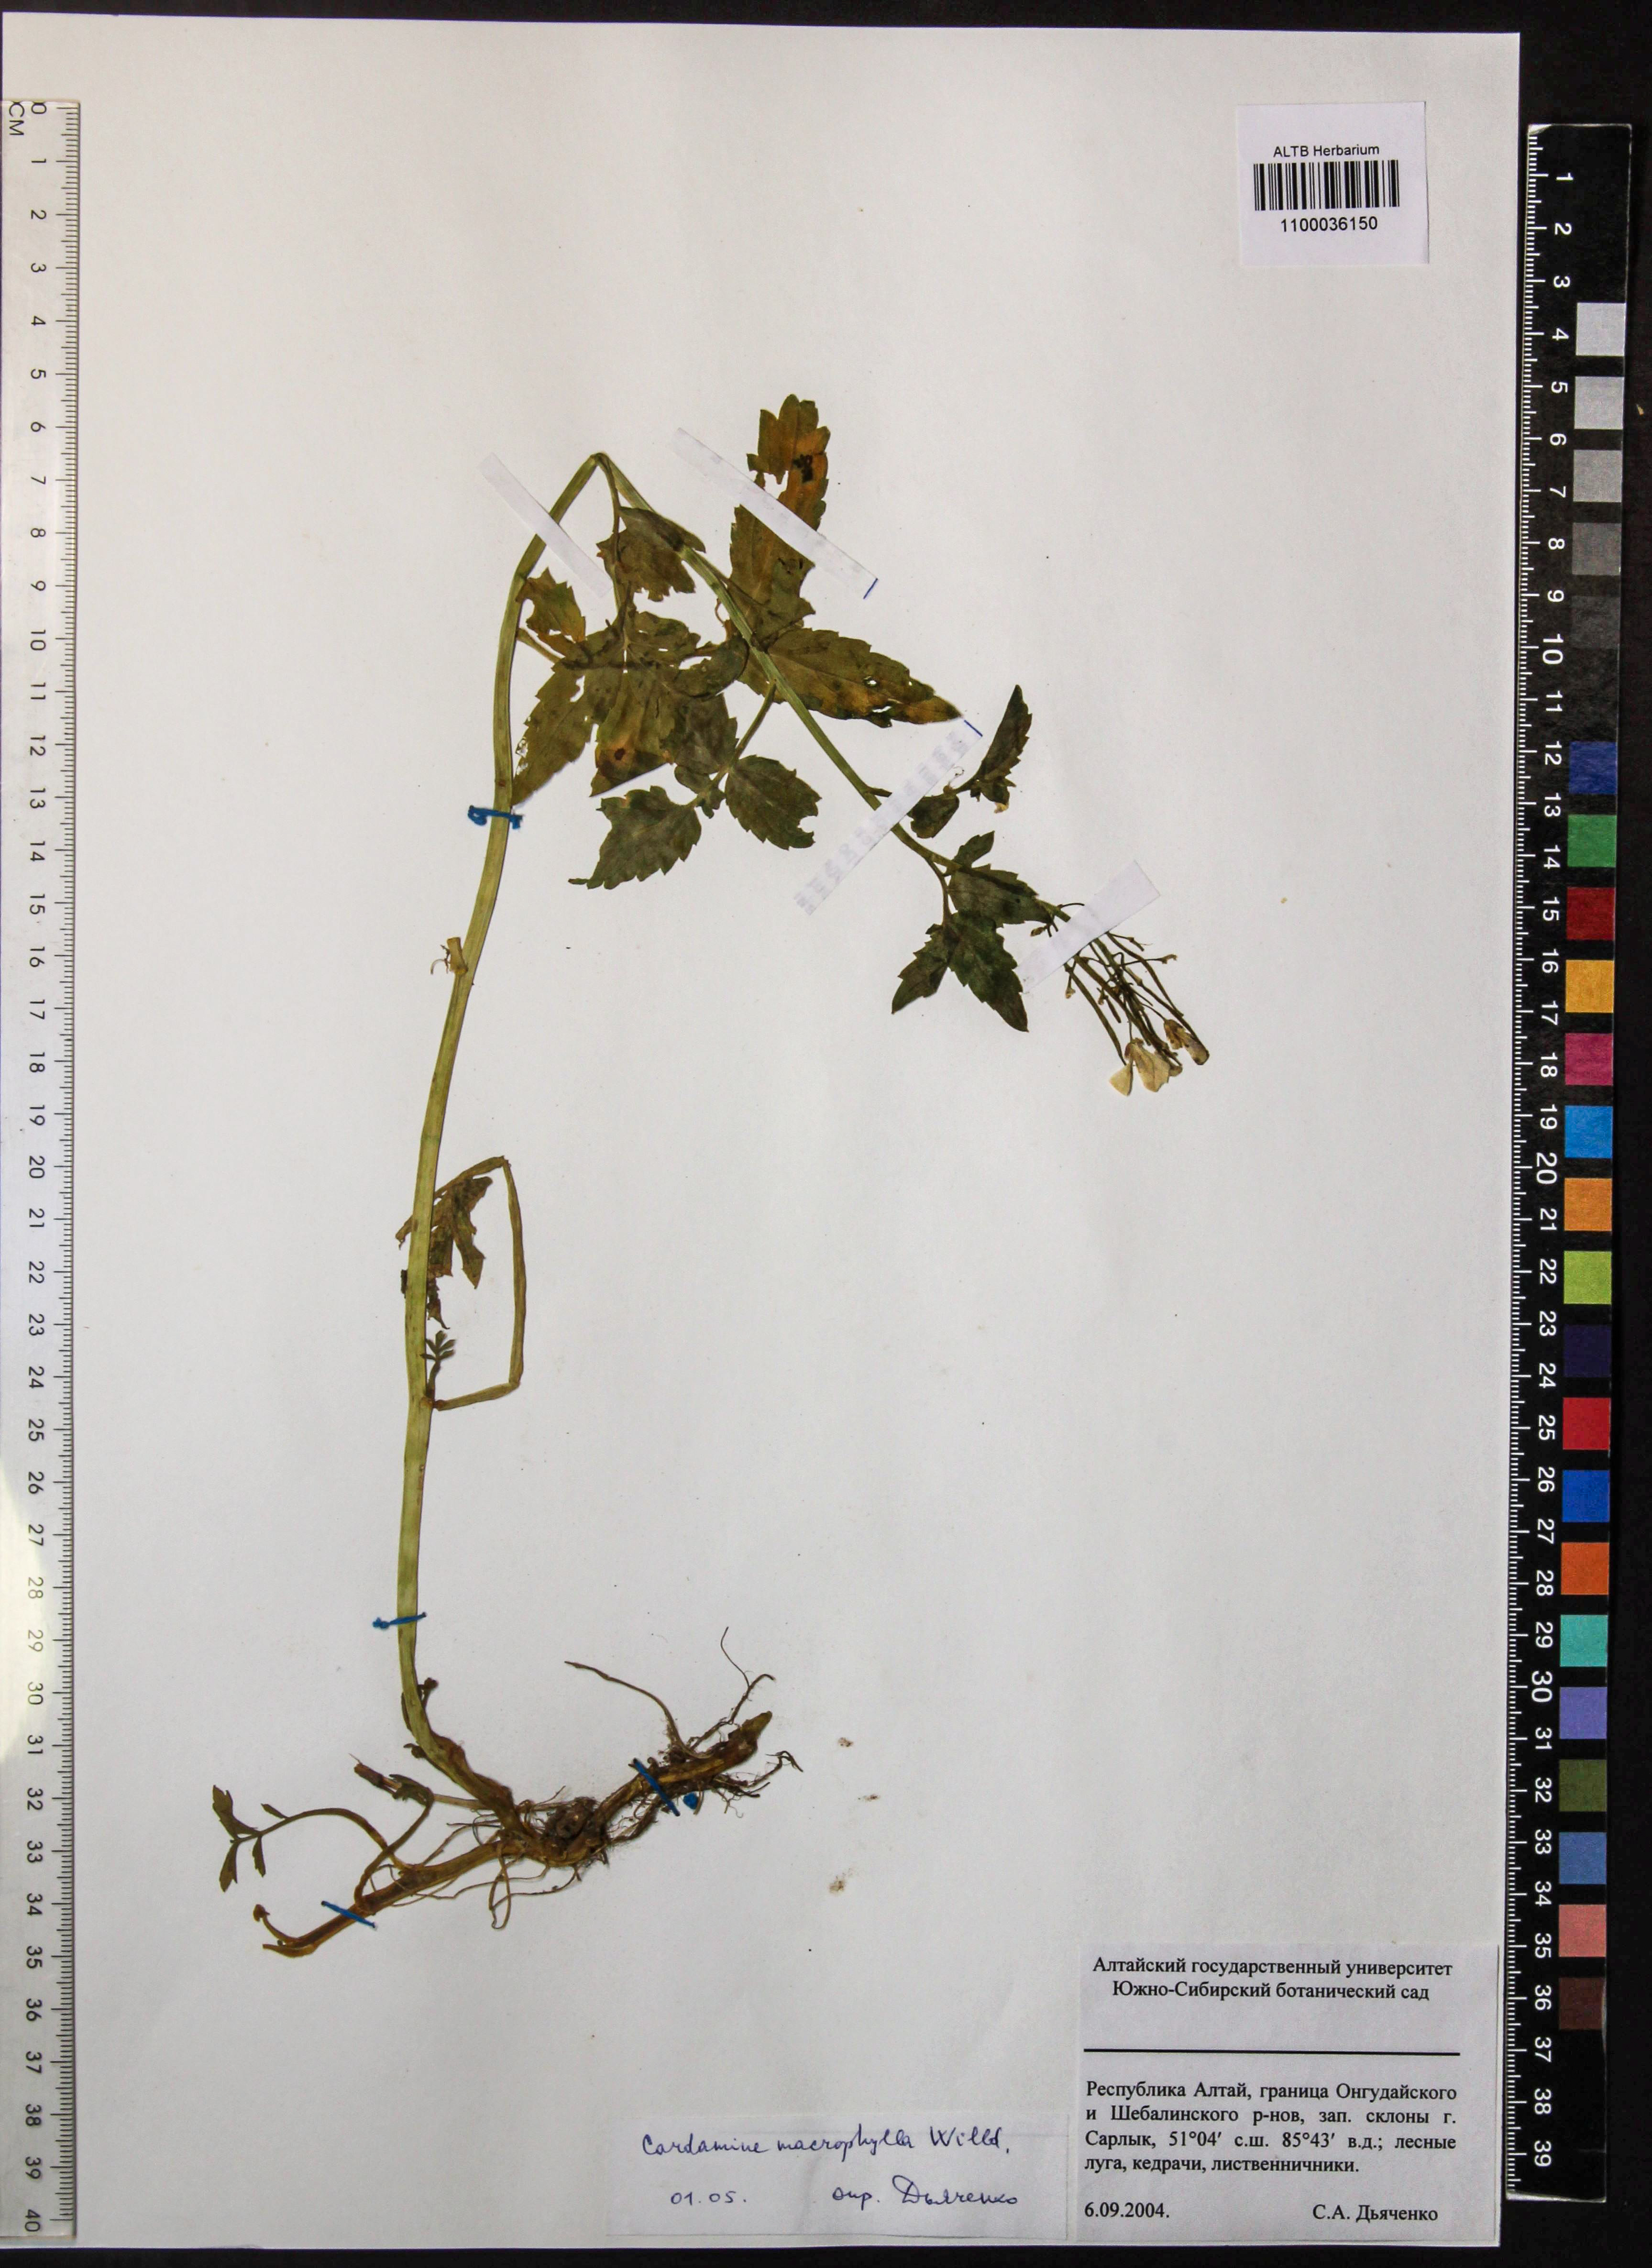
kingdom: Plantae
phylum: Tracheophyta
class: Magnoliopsida
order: Brassicales
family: Brassicaceae
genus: Cardamine
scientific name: Cardamine macrophylla
